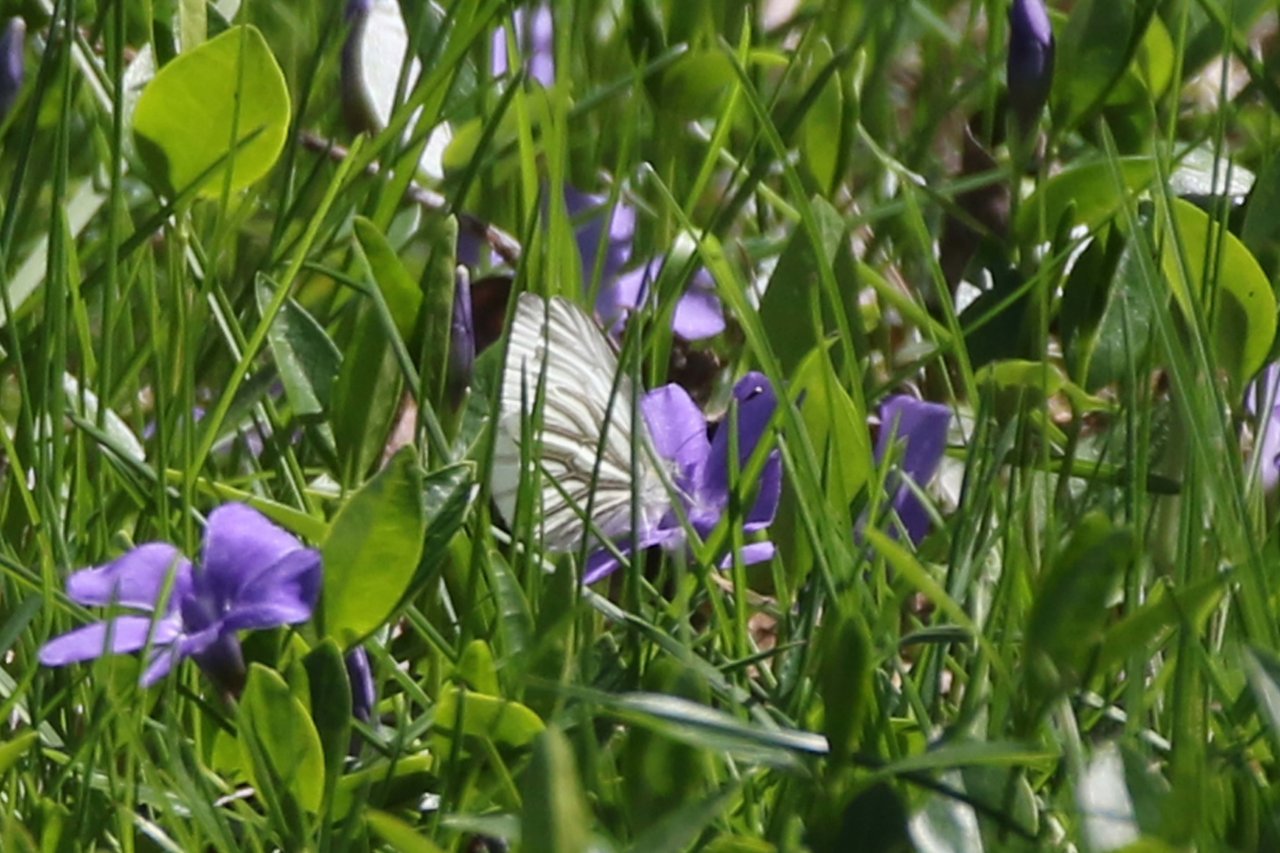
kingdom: Animalia
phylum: Arthropoda
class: Insecta
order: Lepidoptera
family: Pieridae
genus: Pieris
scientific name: Pieris oleracea
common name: Mustard White
